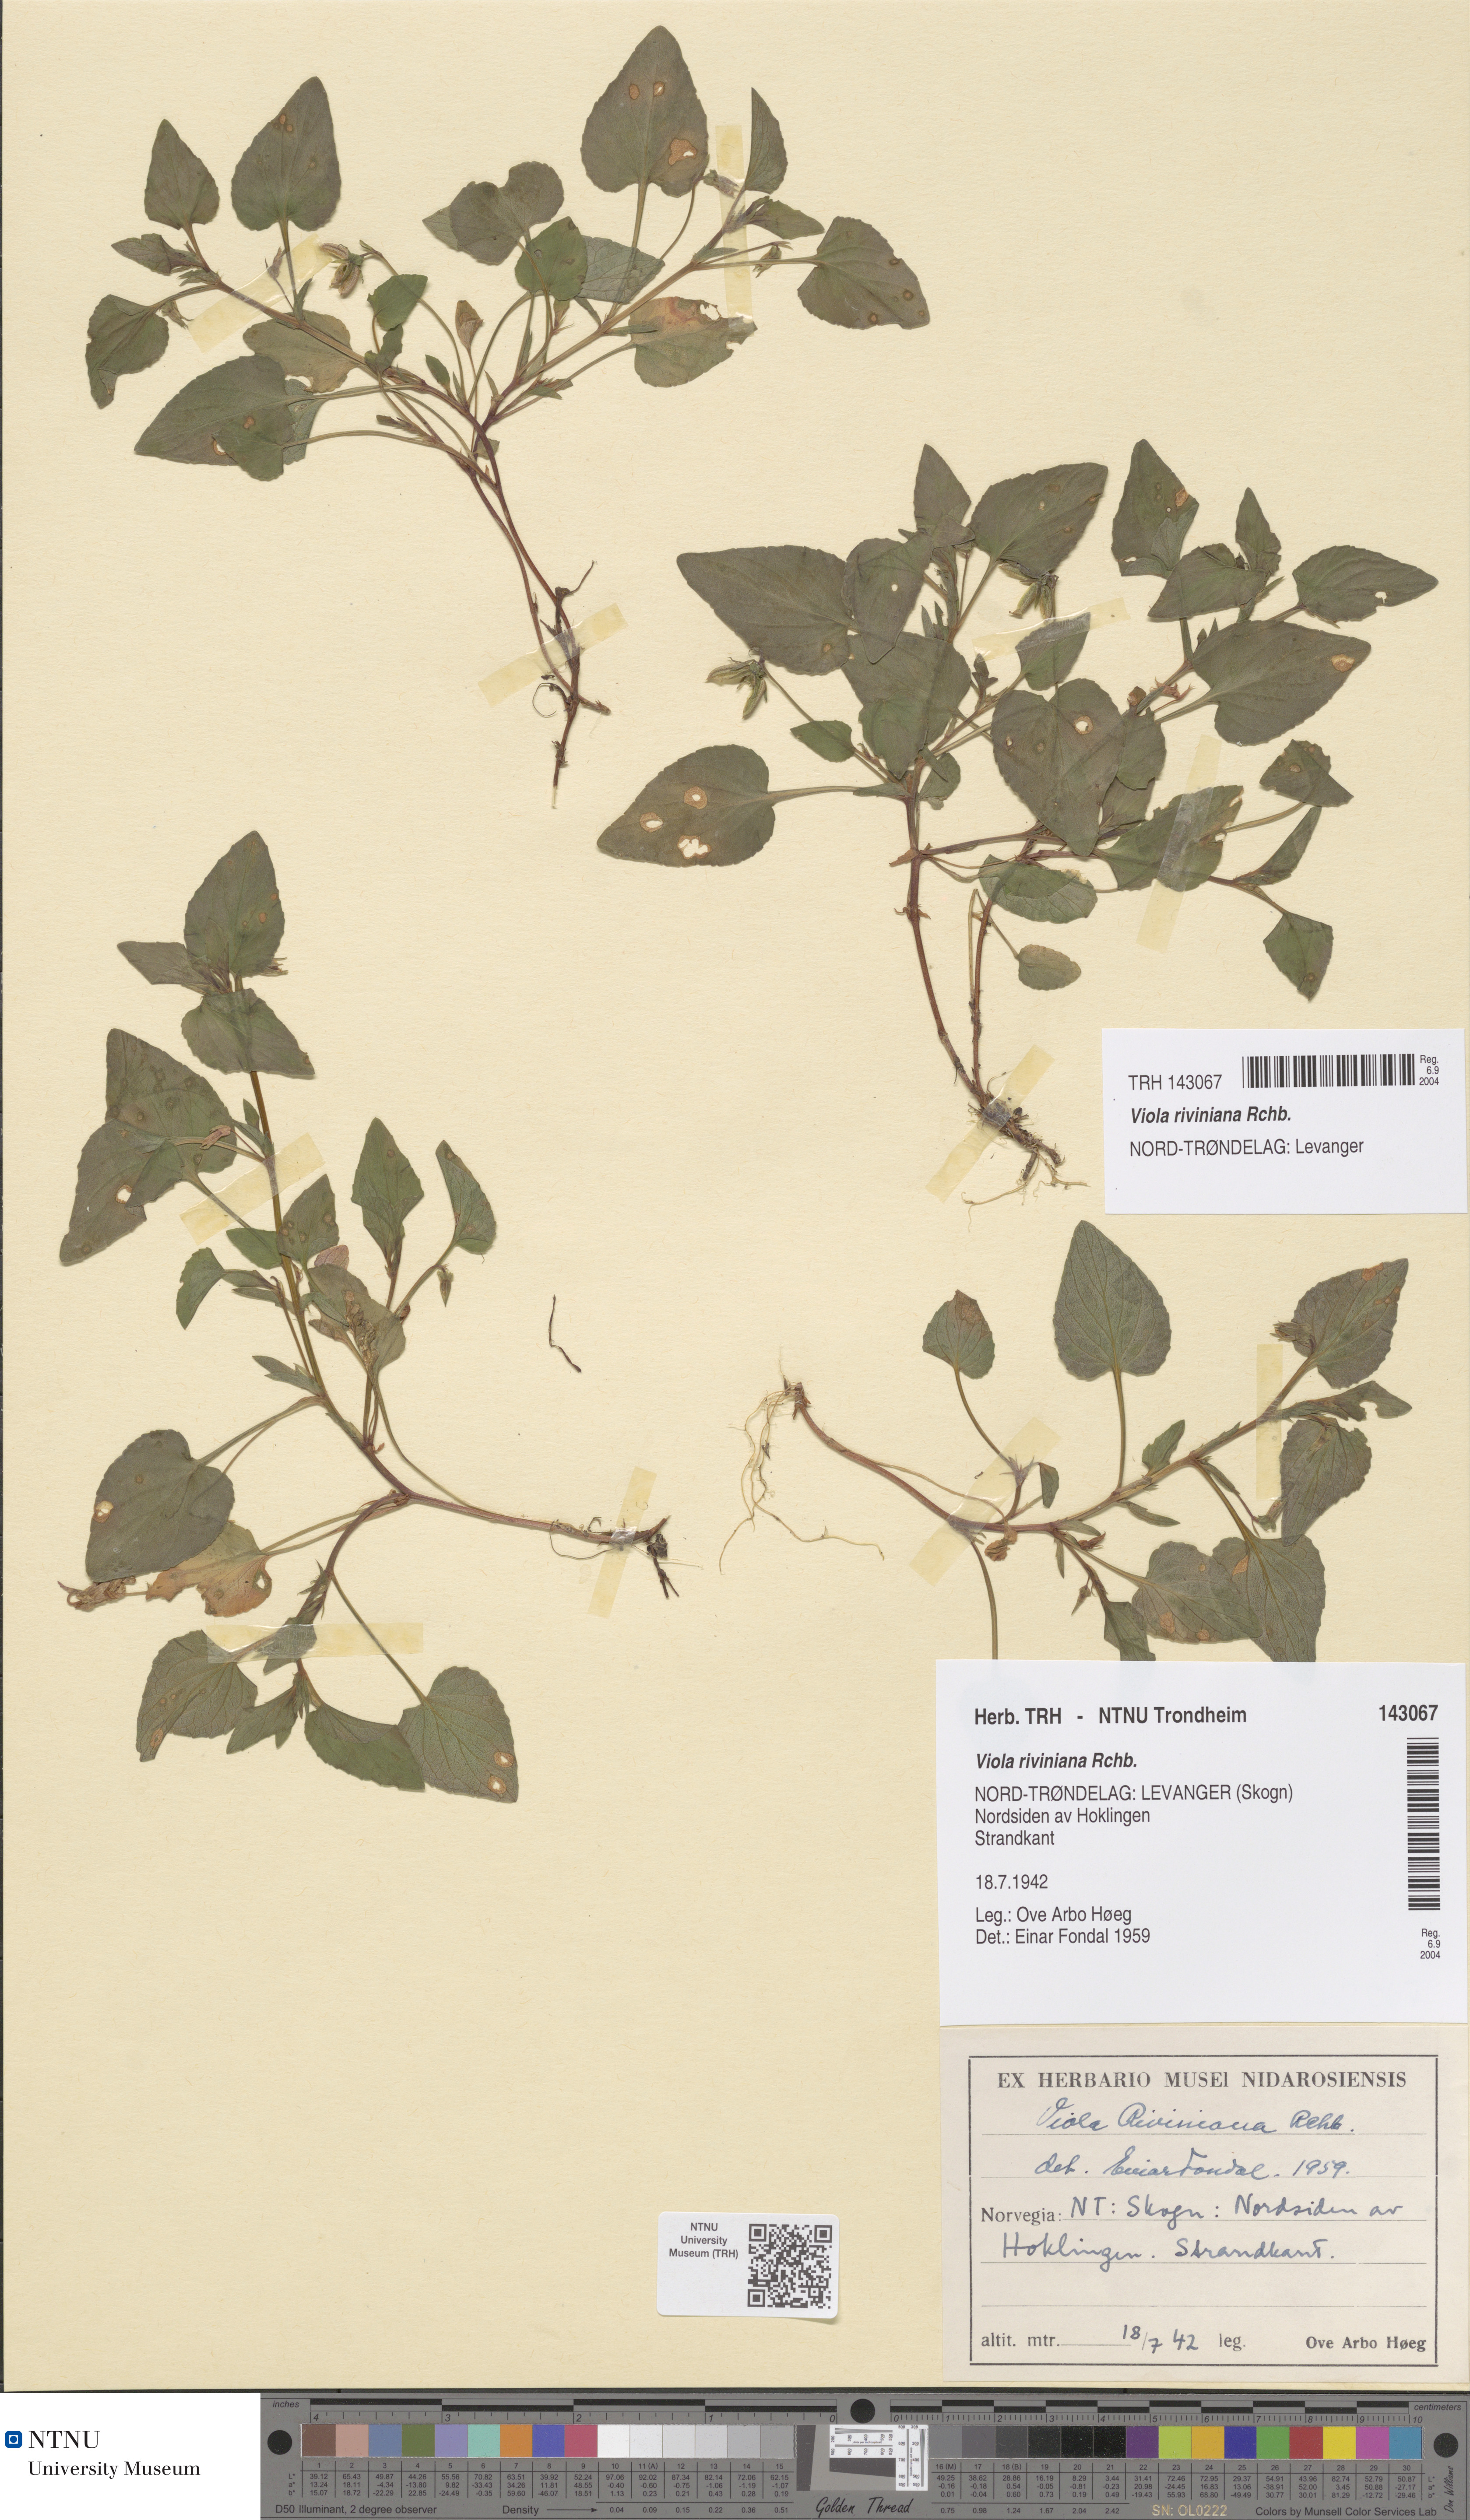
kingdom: Plantae
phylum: Tracheophyta
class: Magnoliopsida
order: Malpighiales
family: Violaceae
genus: Viola
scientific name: Viola riviniana
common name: Common dog-violet
